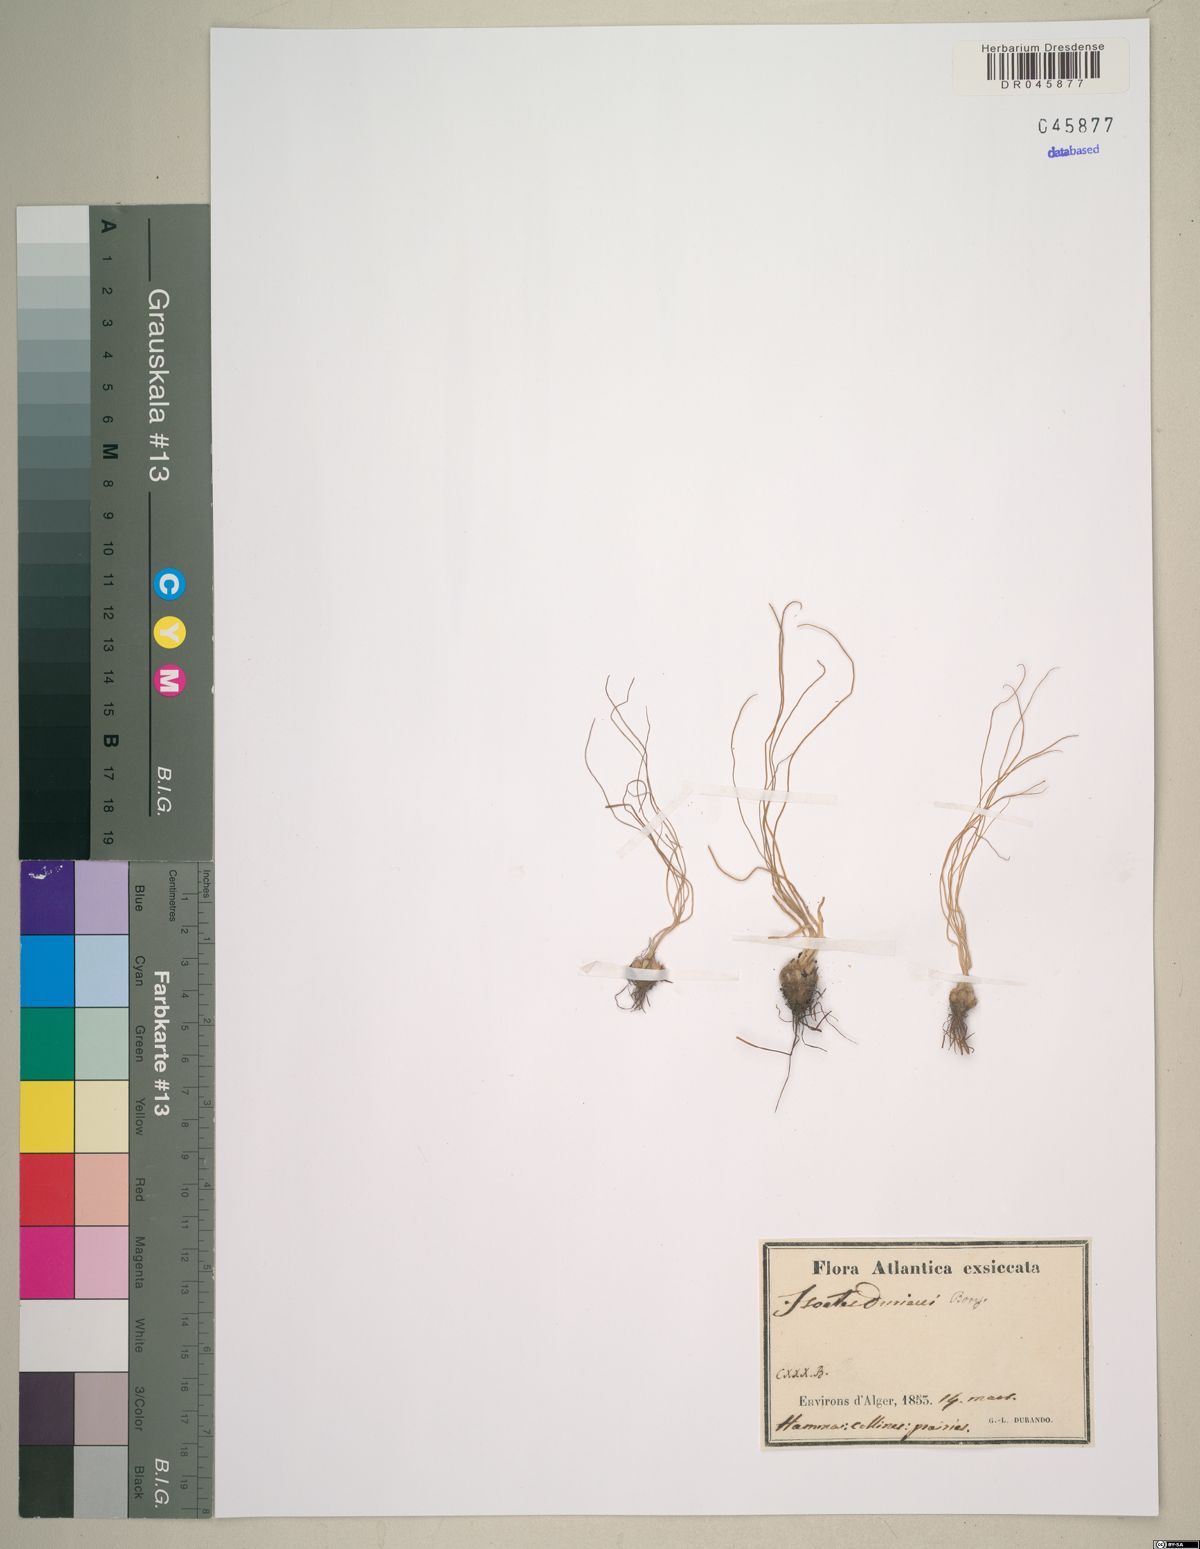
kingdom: Plantae
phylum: Tracheophyta
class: Lycopodiopsida
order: Isoetales
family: Isoetaceae
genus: Isoetes
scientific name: Isoetes duriei
